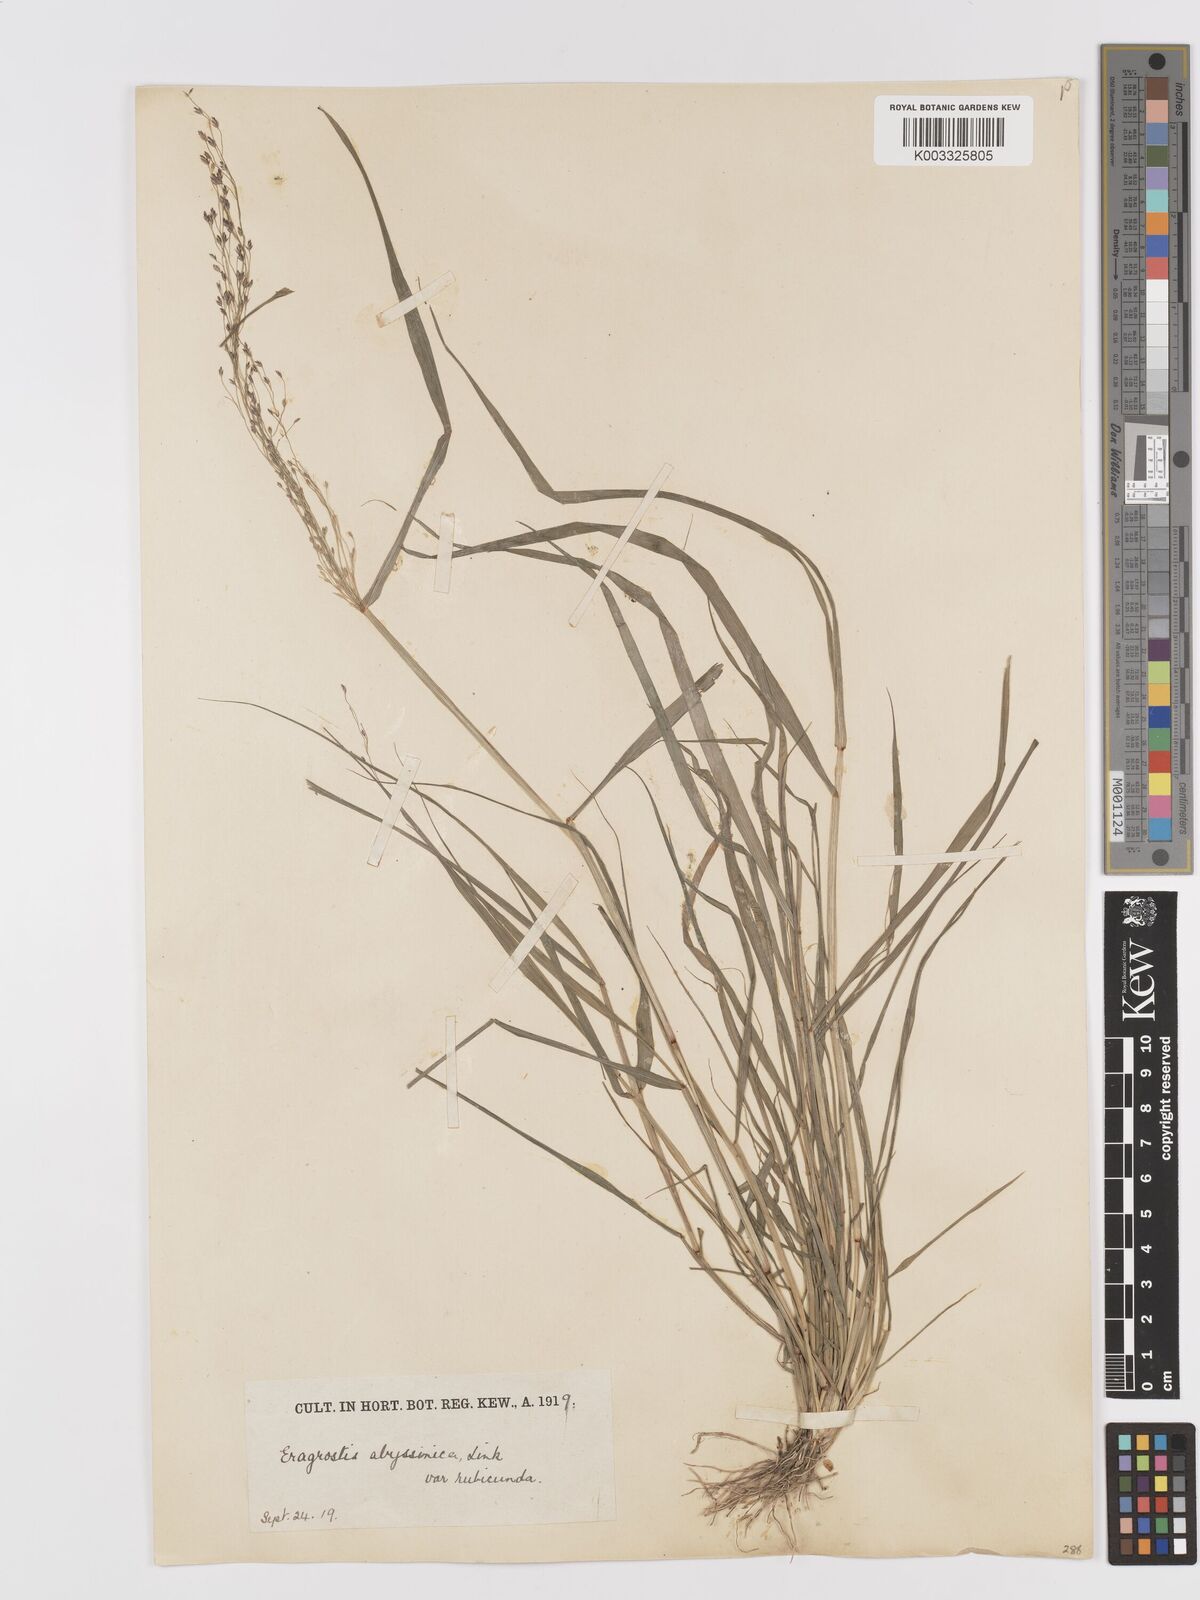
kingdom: Plantae
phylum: Tracheophyta
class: Liliopsida
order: Poales
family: Poaceae
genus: Eragrostis
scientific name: Eragrostis tef
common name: Teff
